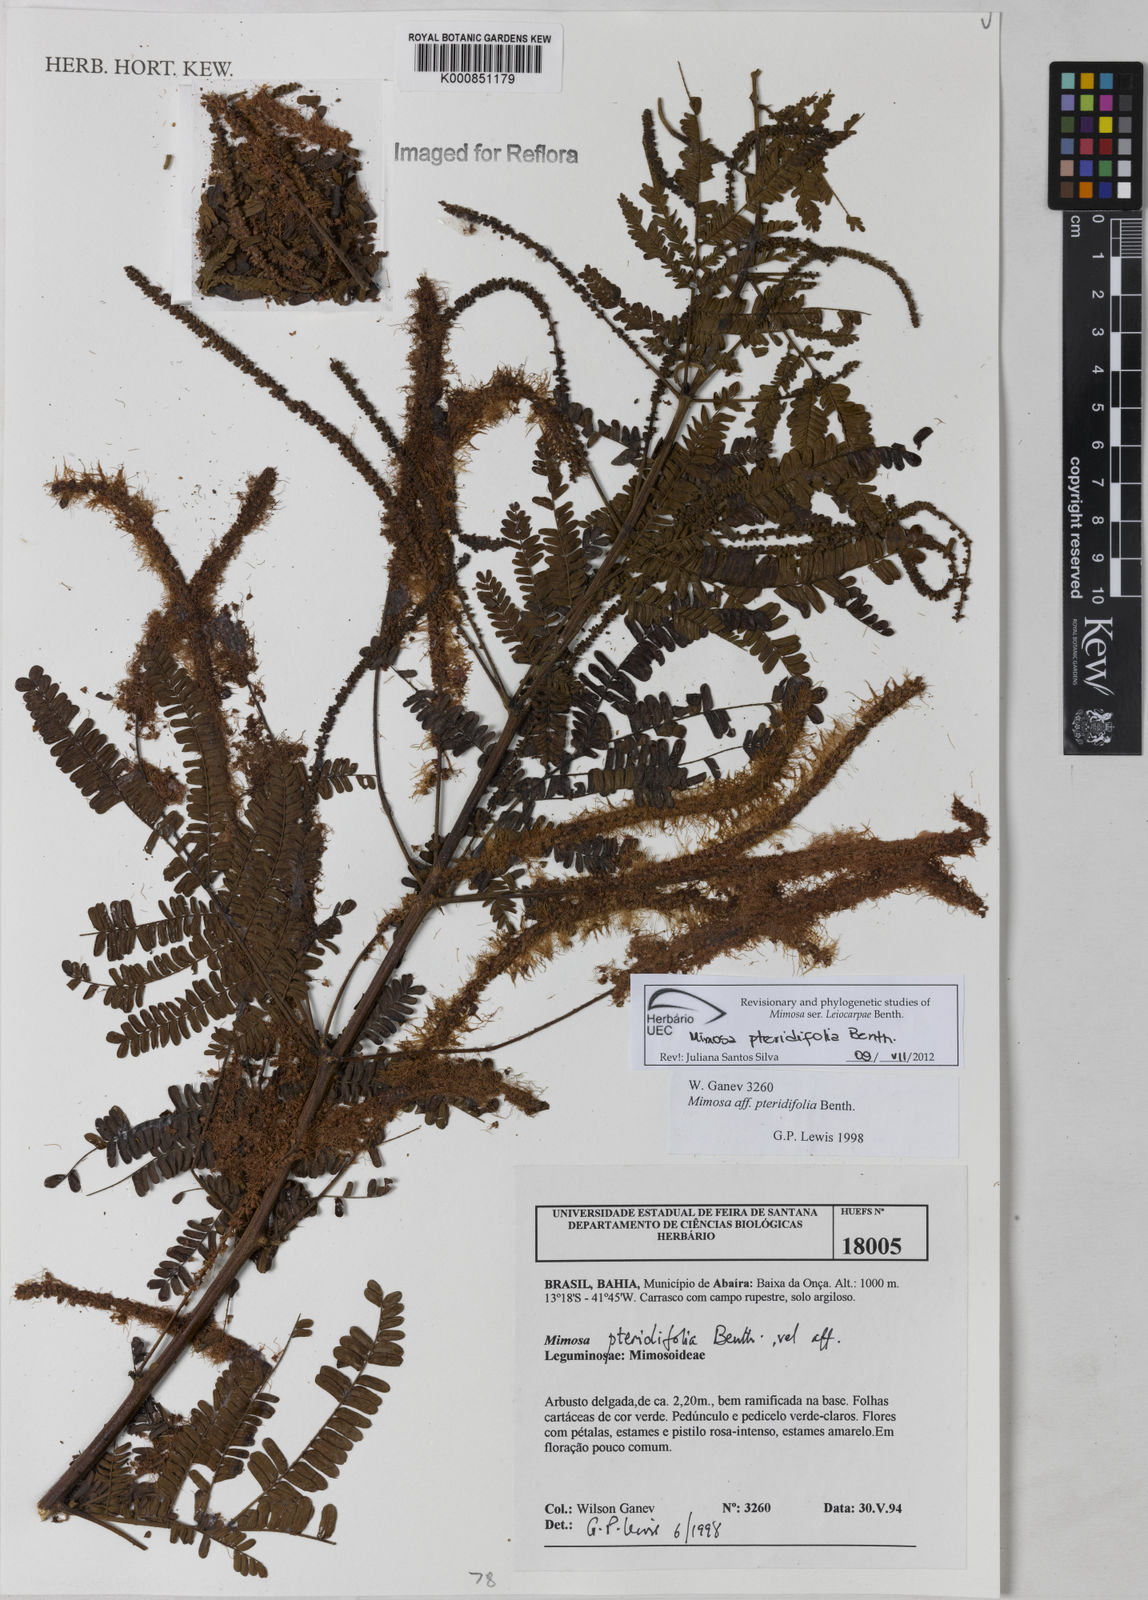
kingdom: Plantae
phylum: Tracheophyta
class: Magnoliopsida
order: Fabales
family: Fabaceae
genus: Mimosa
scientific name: Mimosa pteridifolia
